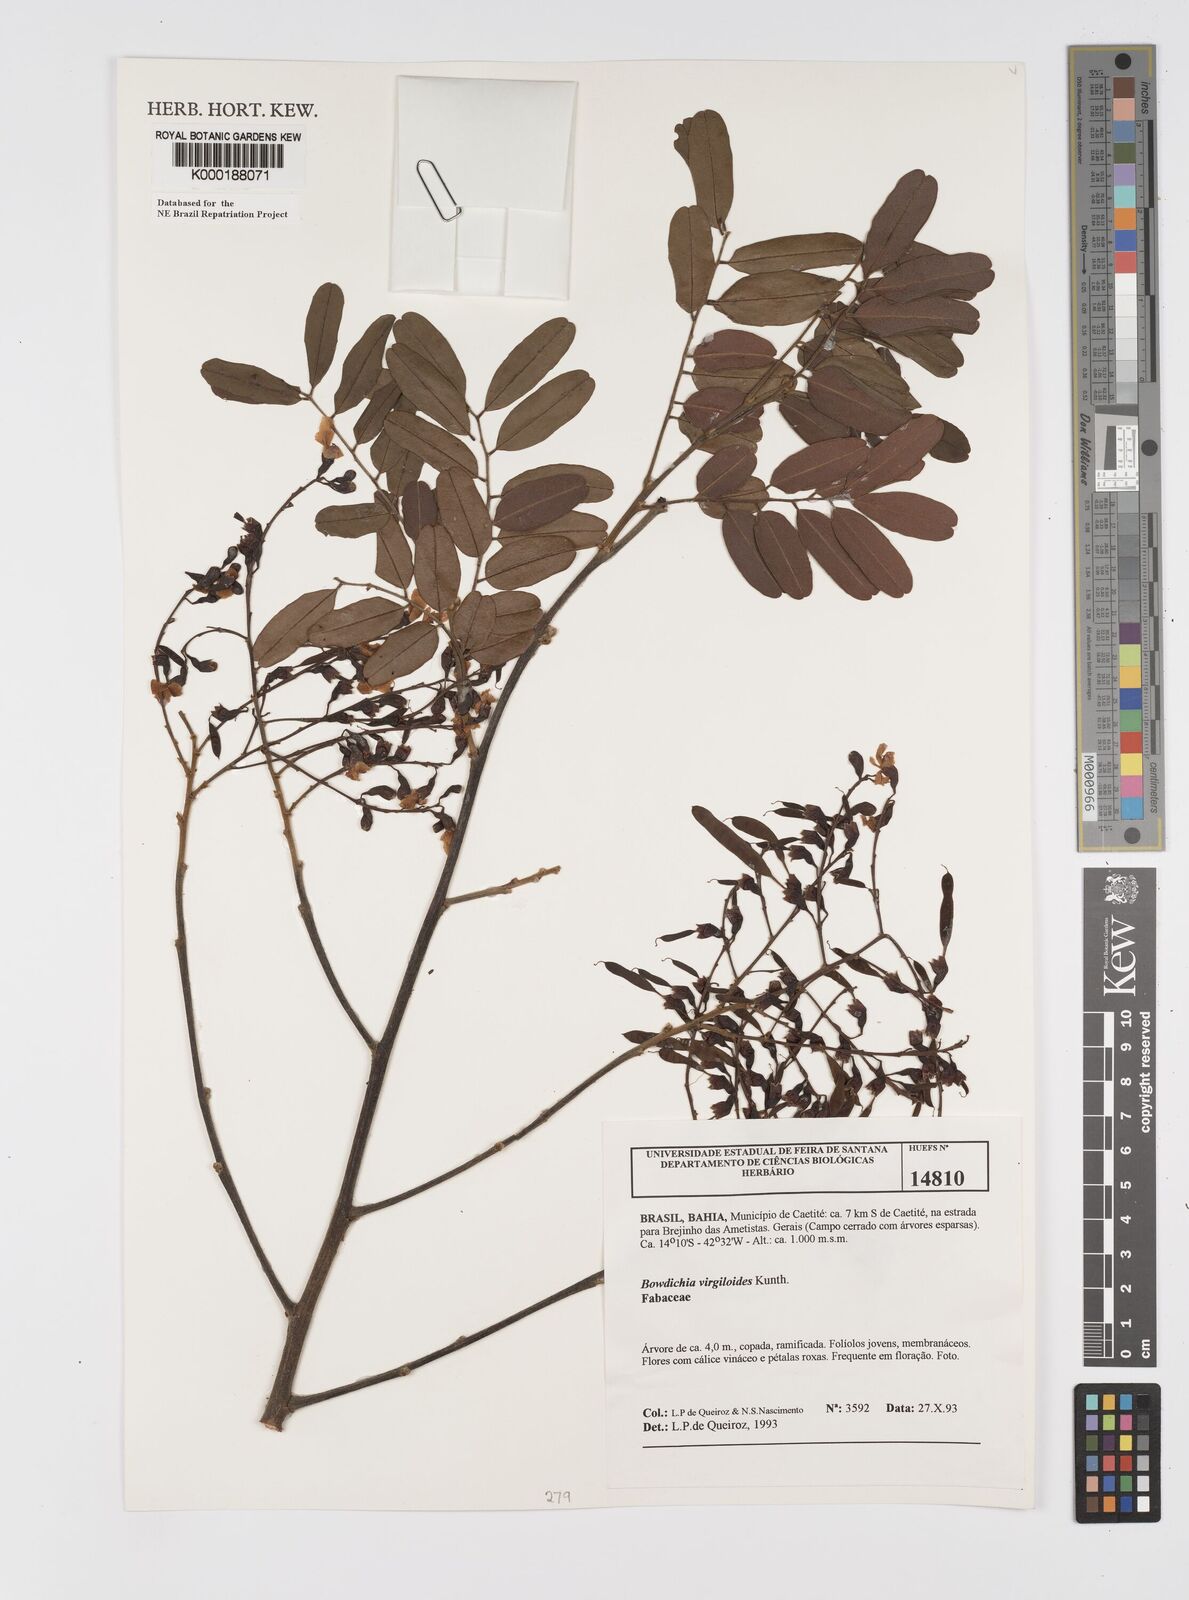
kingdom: Plantae
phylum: Tracheophyta
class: Magnoliopsida
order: Fabales
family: Fabaceae
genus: Bowdichia
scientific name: Bowdichia virgilioides
